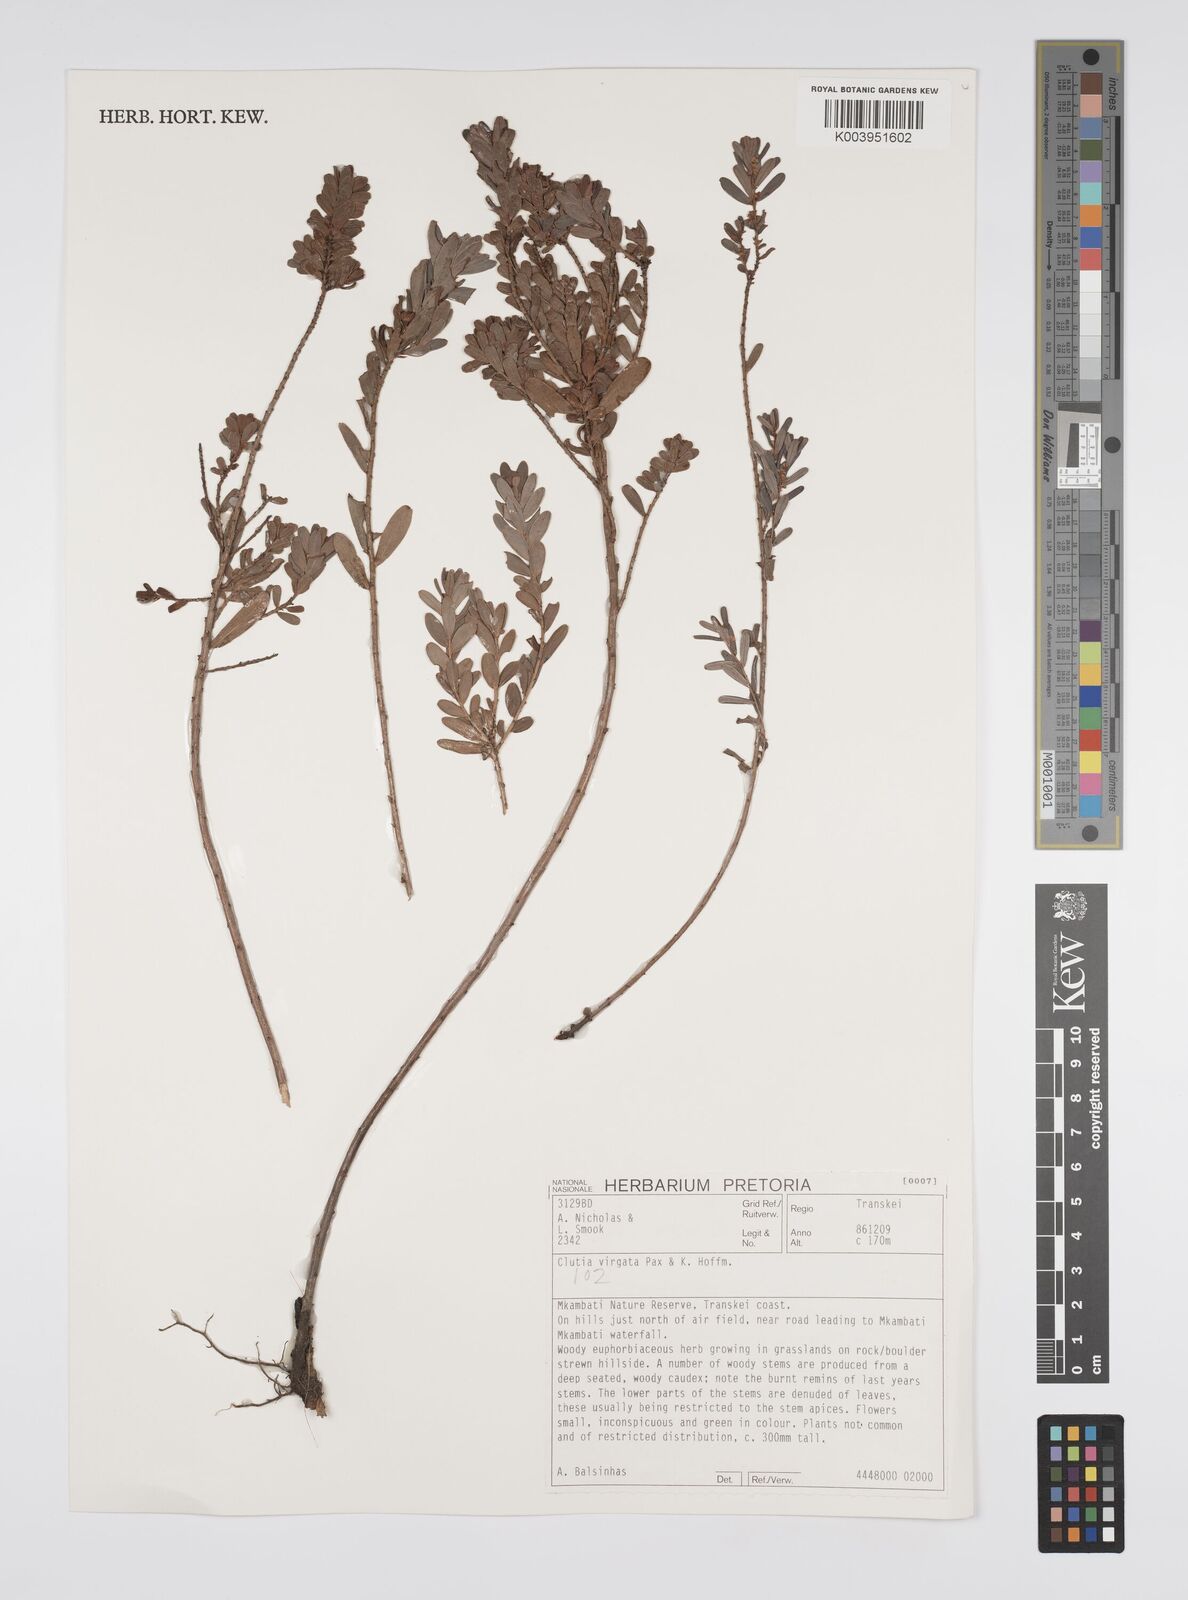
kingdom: Plantae
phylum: Tracheophyta
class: Magnoliopsida
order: Malpighiales
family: Peraceae
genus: Clutia
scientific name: Clutia virgata
